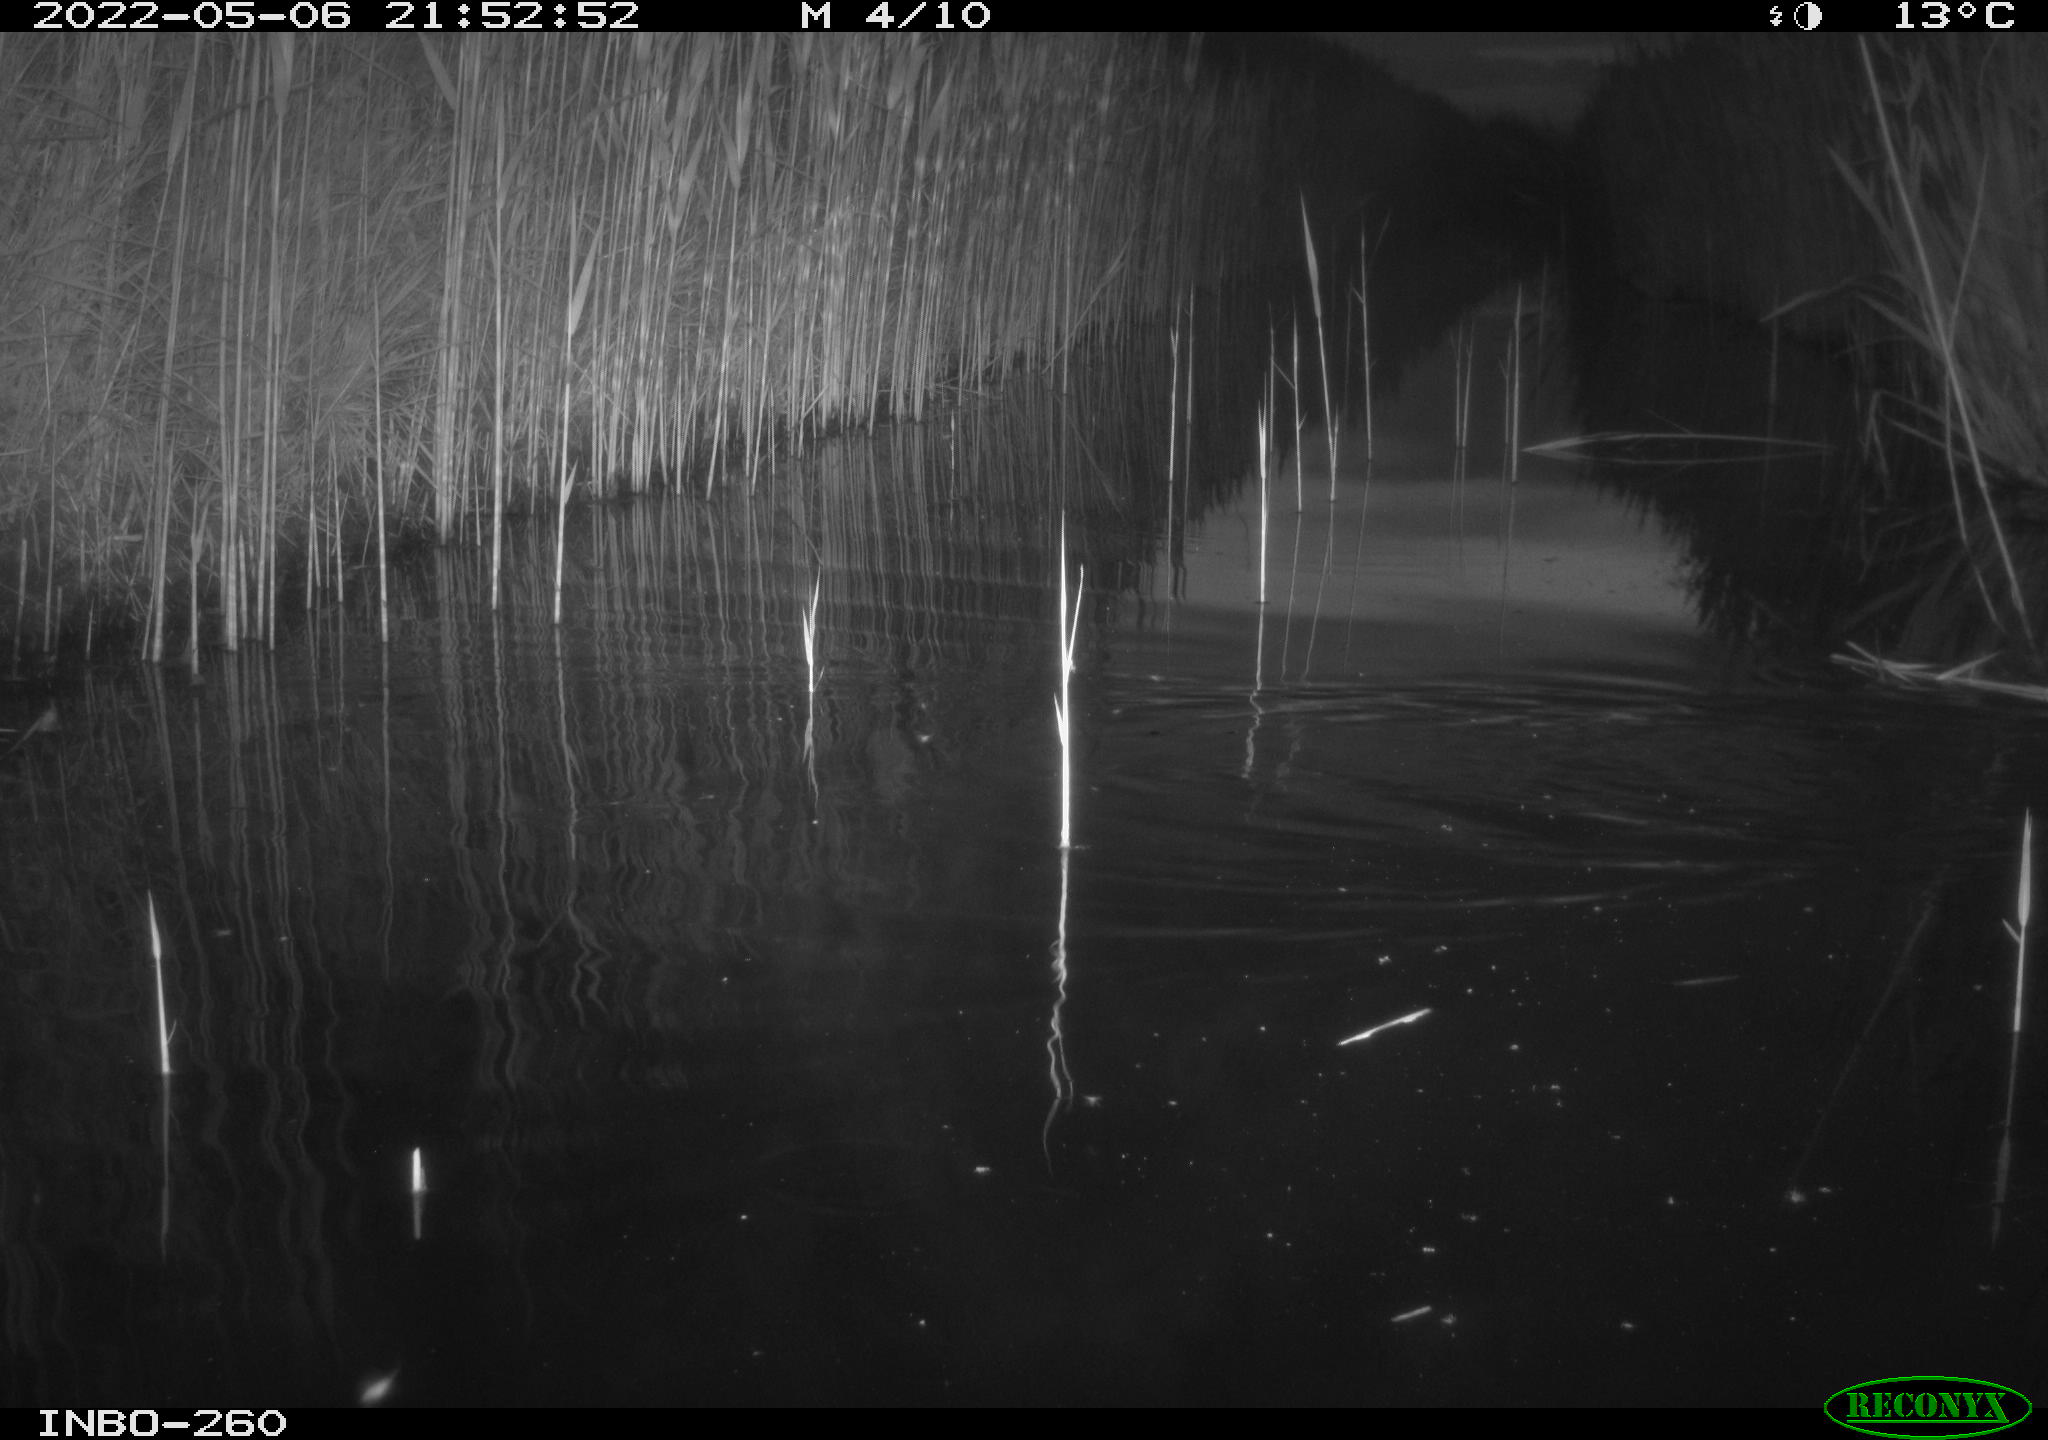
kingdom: Animalia
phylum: Chordata
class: Mammalia
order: Rodentia
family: Muridae
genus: Rattus
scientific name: Rattus norvegicus
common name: Brown rat
